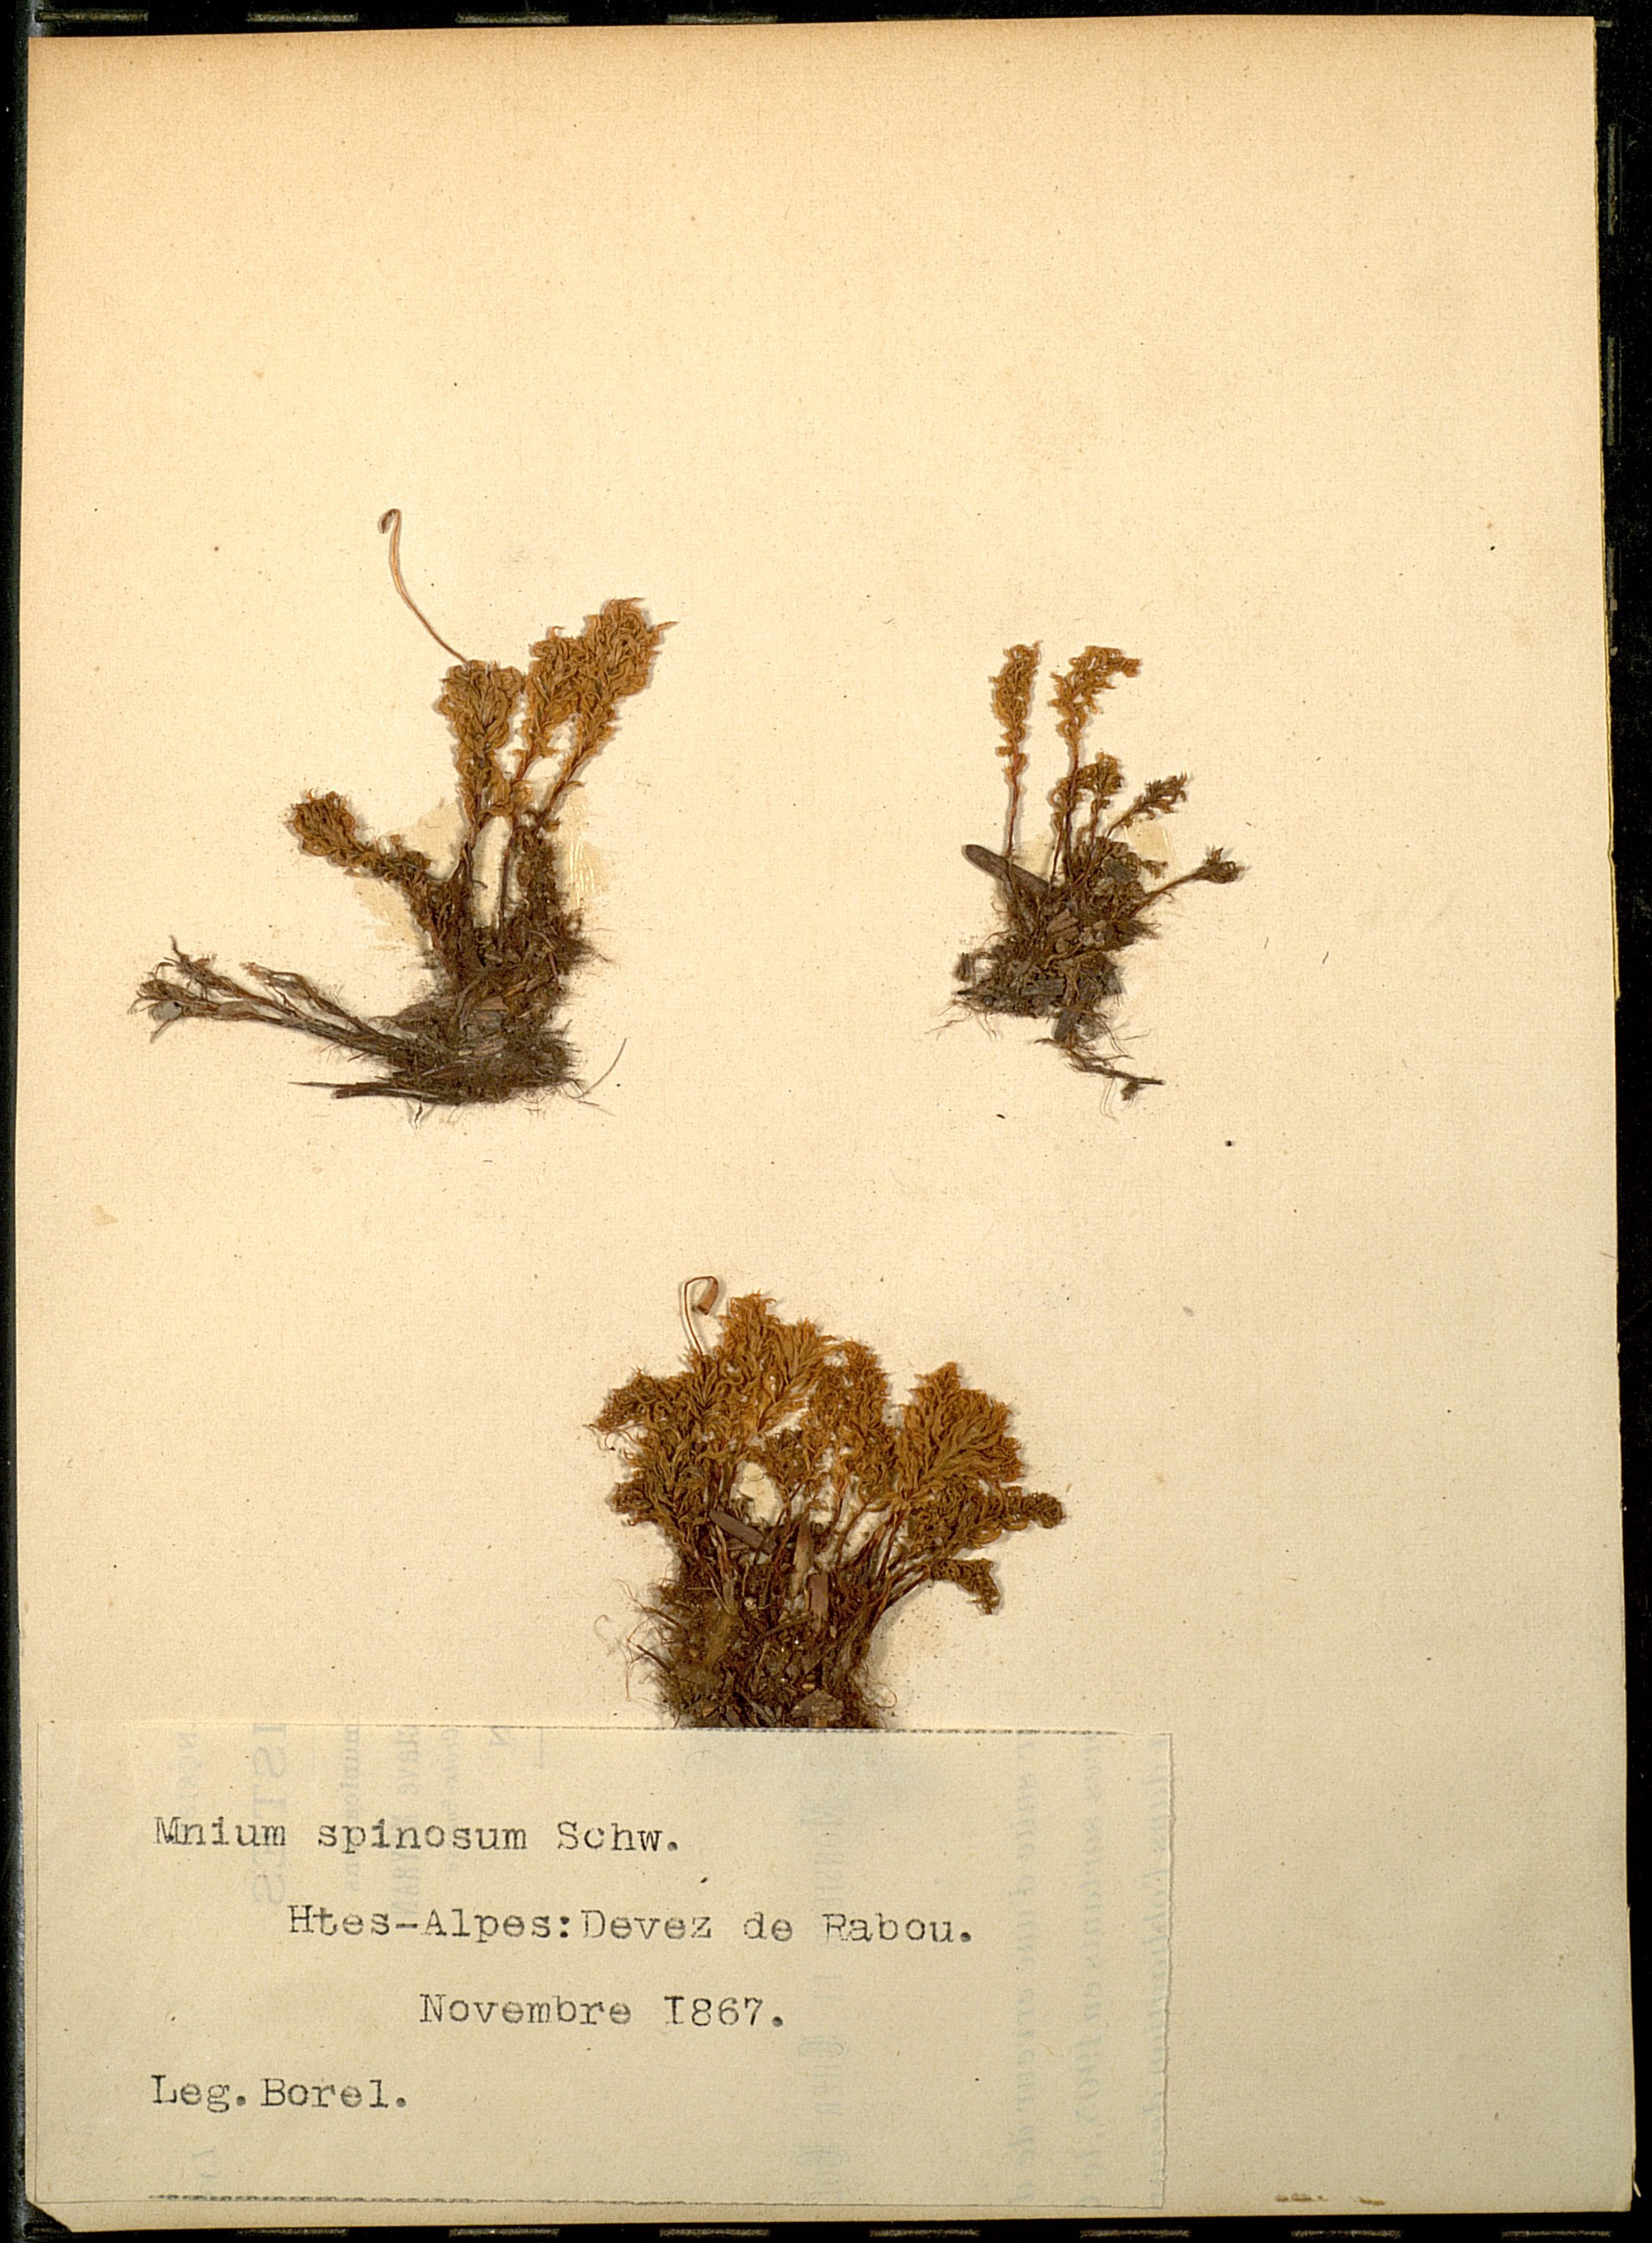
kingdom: Plantae
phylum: Bryophyta
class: Bryopsida
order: Bryales
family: Mniaceae
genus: Mnium
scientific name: Mnium spinosum
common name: Spinose thyme-moss
